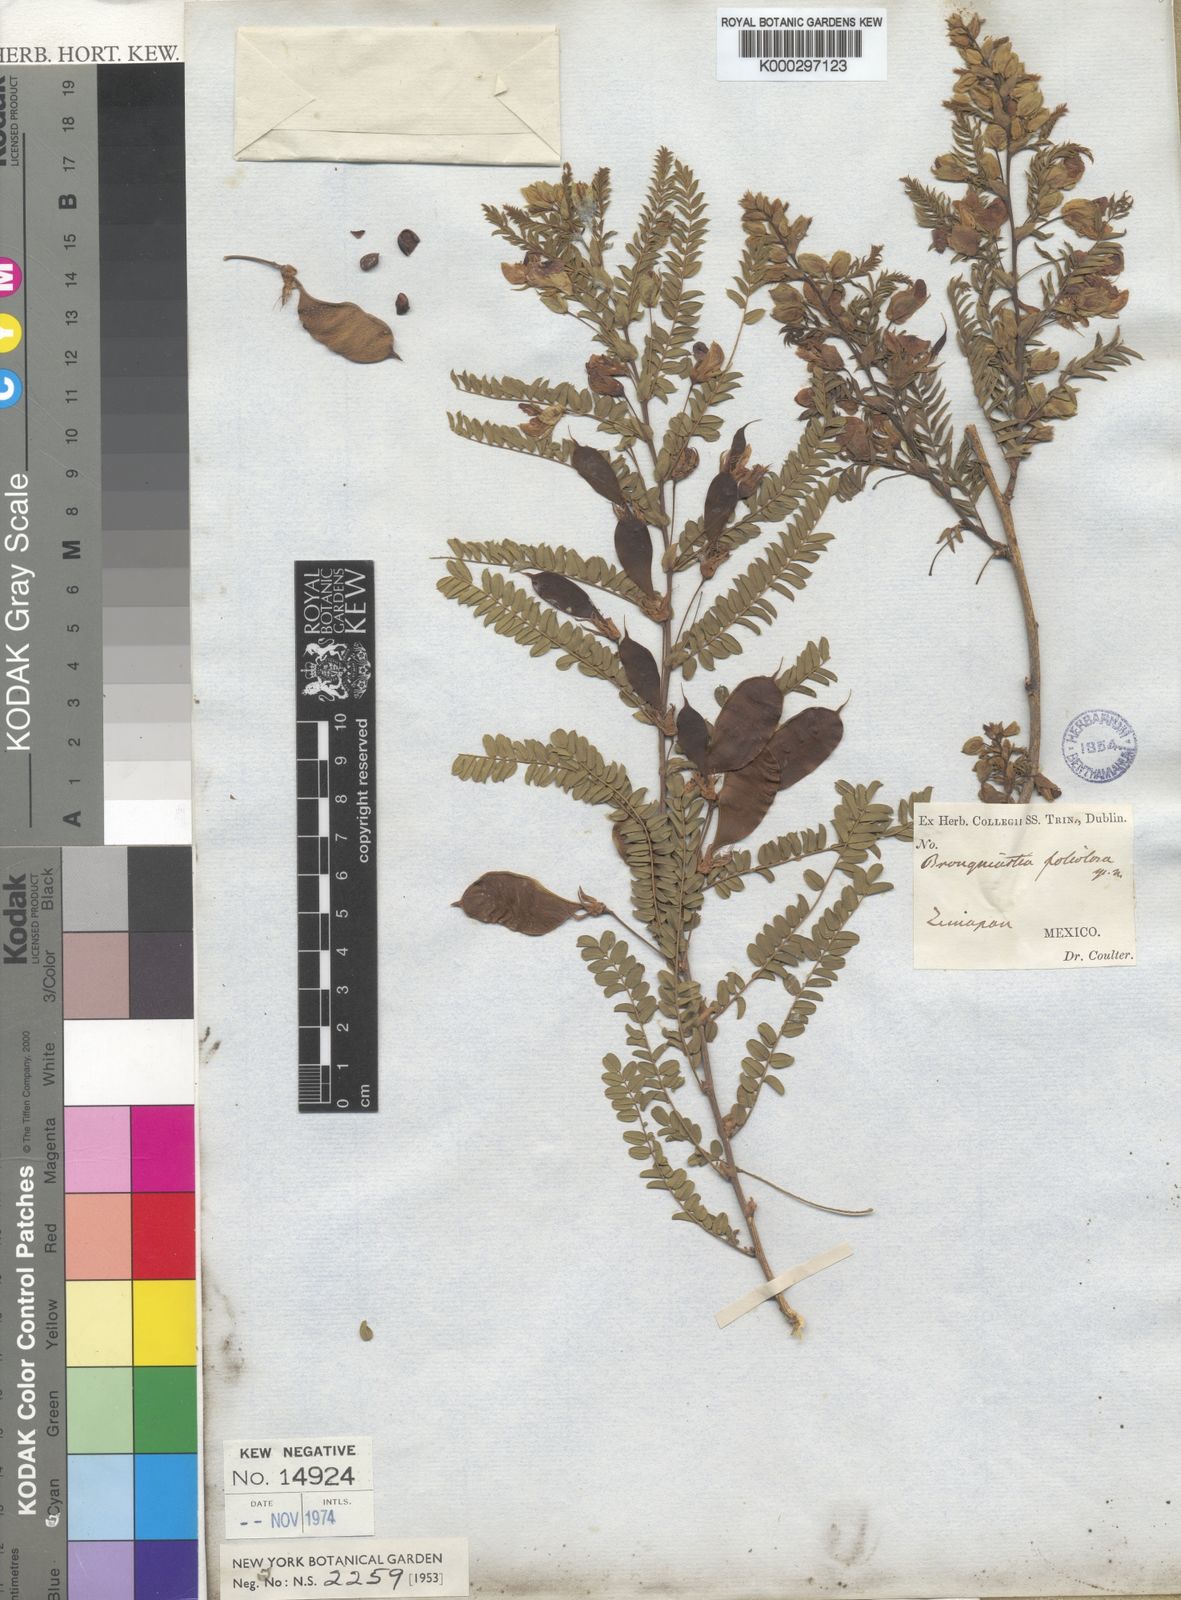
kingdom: Plantae
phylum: Tracheophyta
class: Magnoliopsida
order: Fabales
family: Fabaceae
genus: Brongniartia
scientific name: Brongniartia foliolosa
